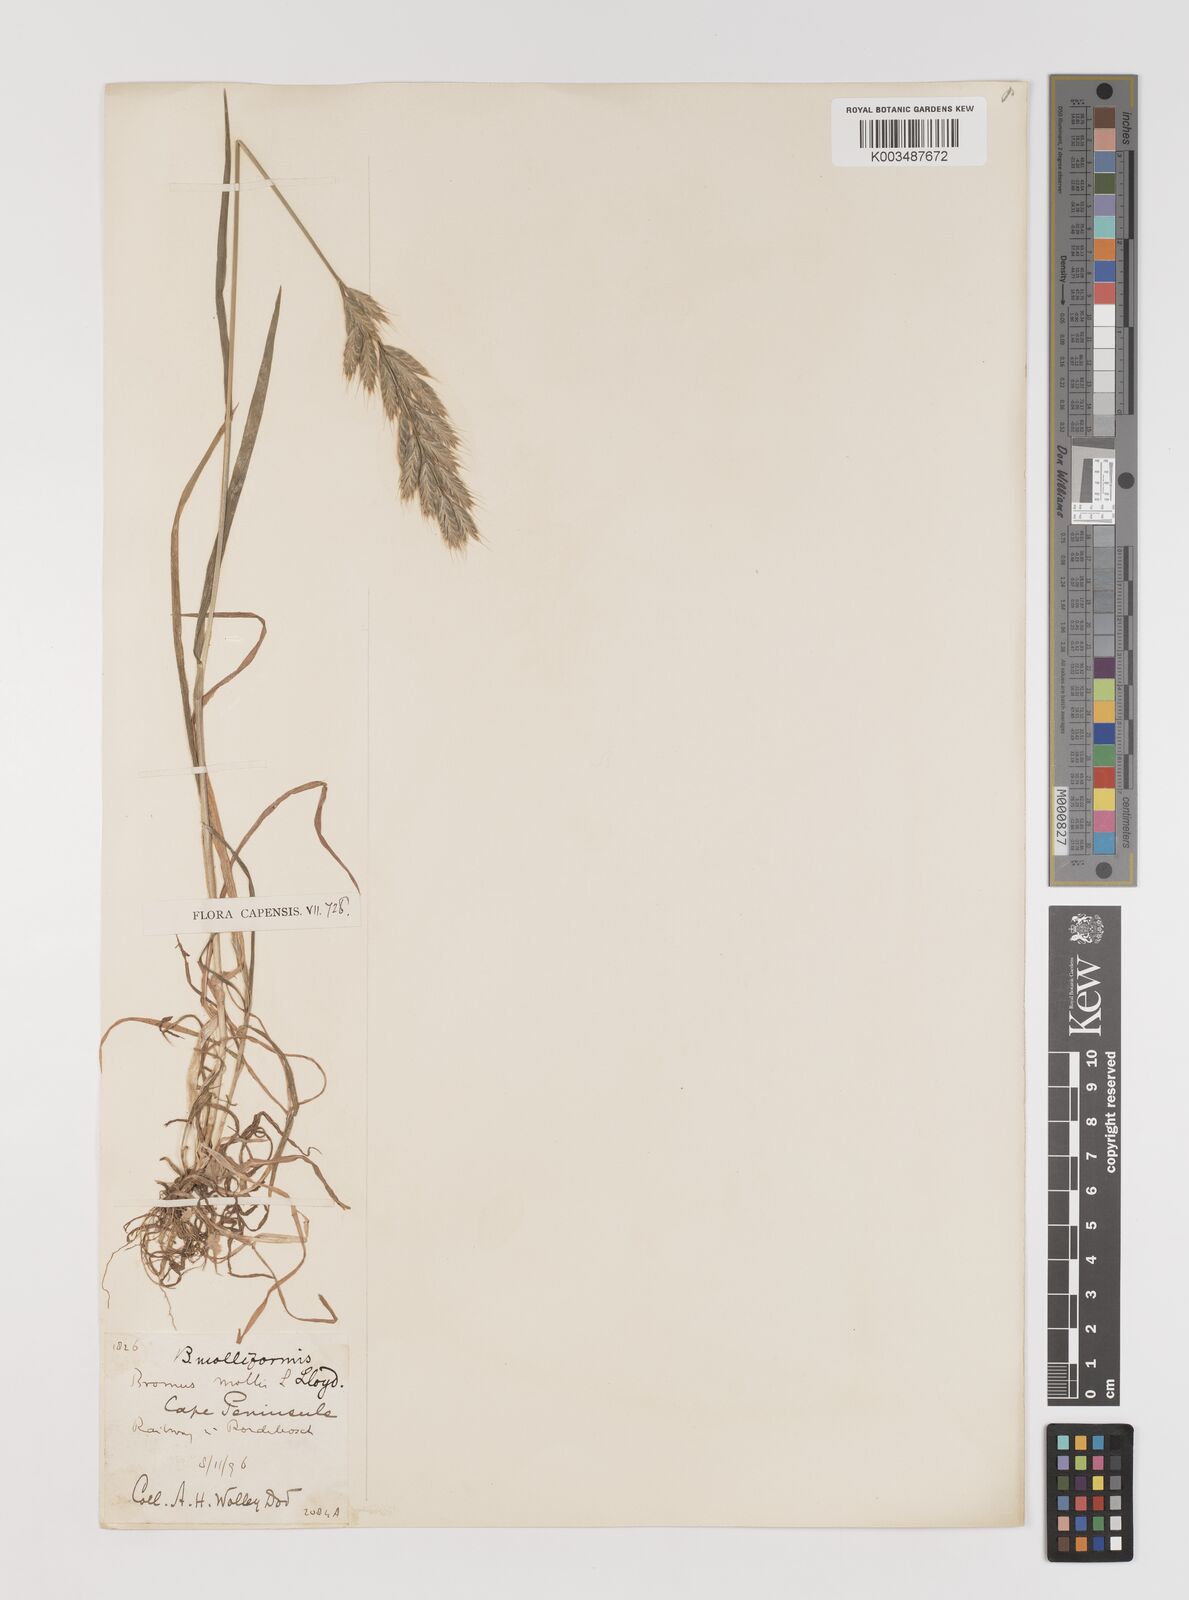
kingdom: Plantae
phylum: Tracheophyta
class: Liliopsida
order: Poales
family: Poaceae
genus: Bromus
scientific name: Bromus hordeaceus
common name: Soft brome
